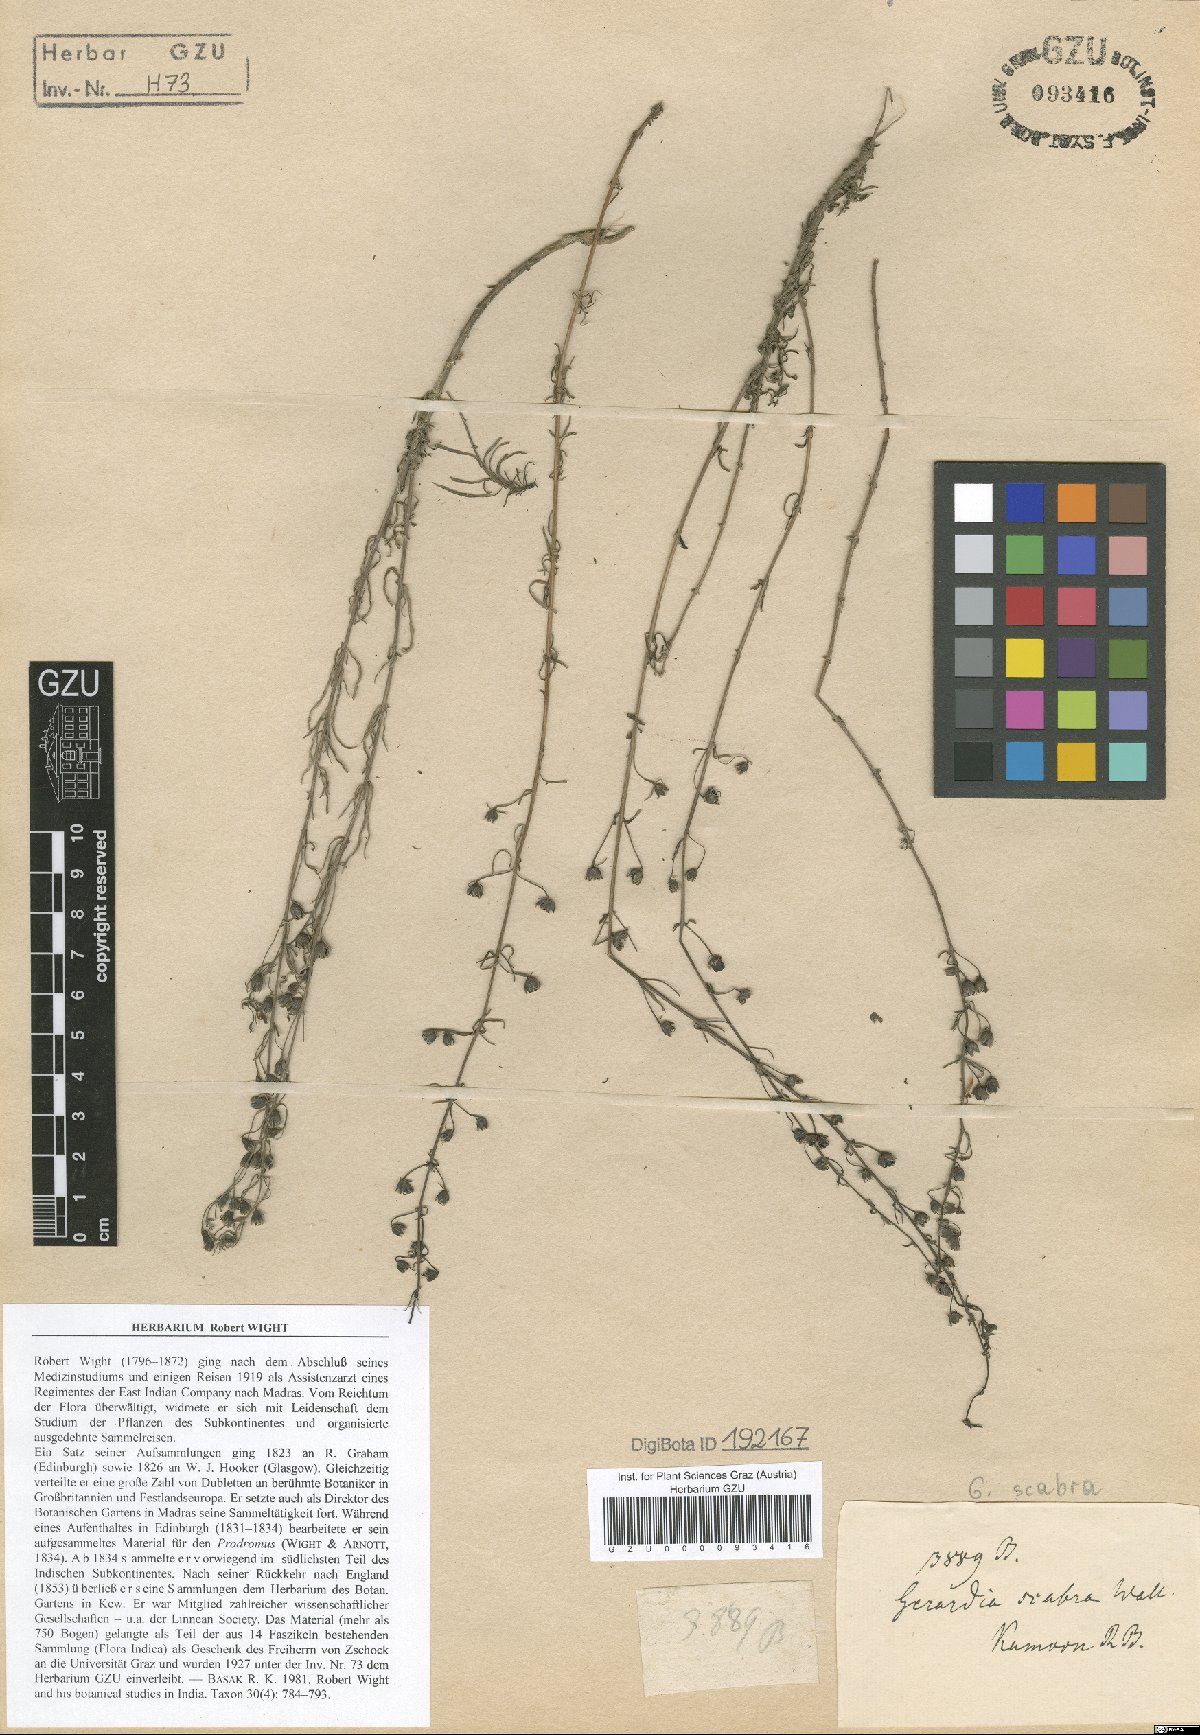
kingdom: Plantae
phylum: Tracheophyta
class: Magnoliopsida
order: Lamiales
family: Orobanchaceae
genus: Sopubia
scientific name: Sopubia trifida
